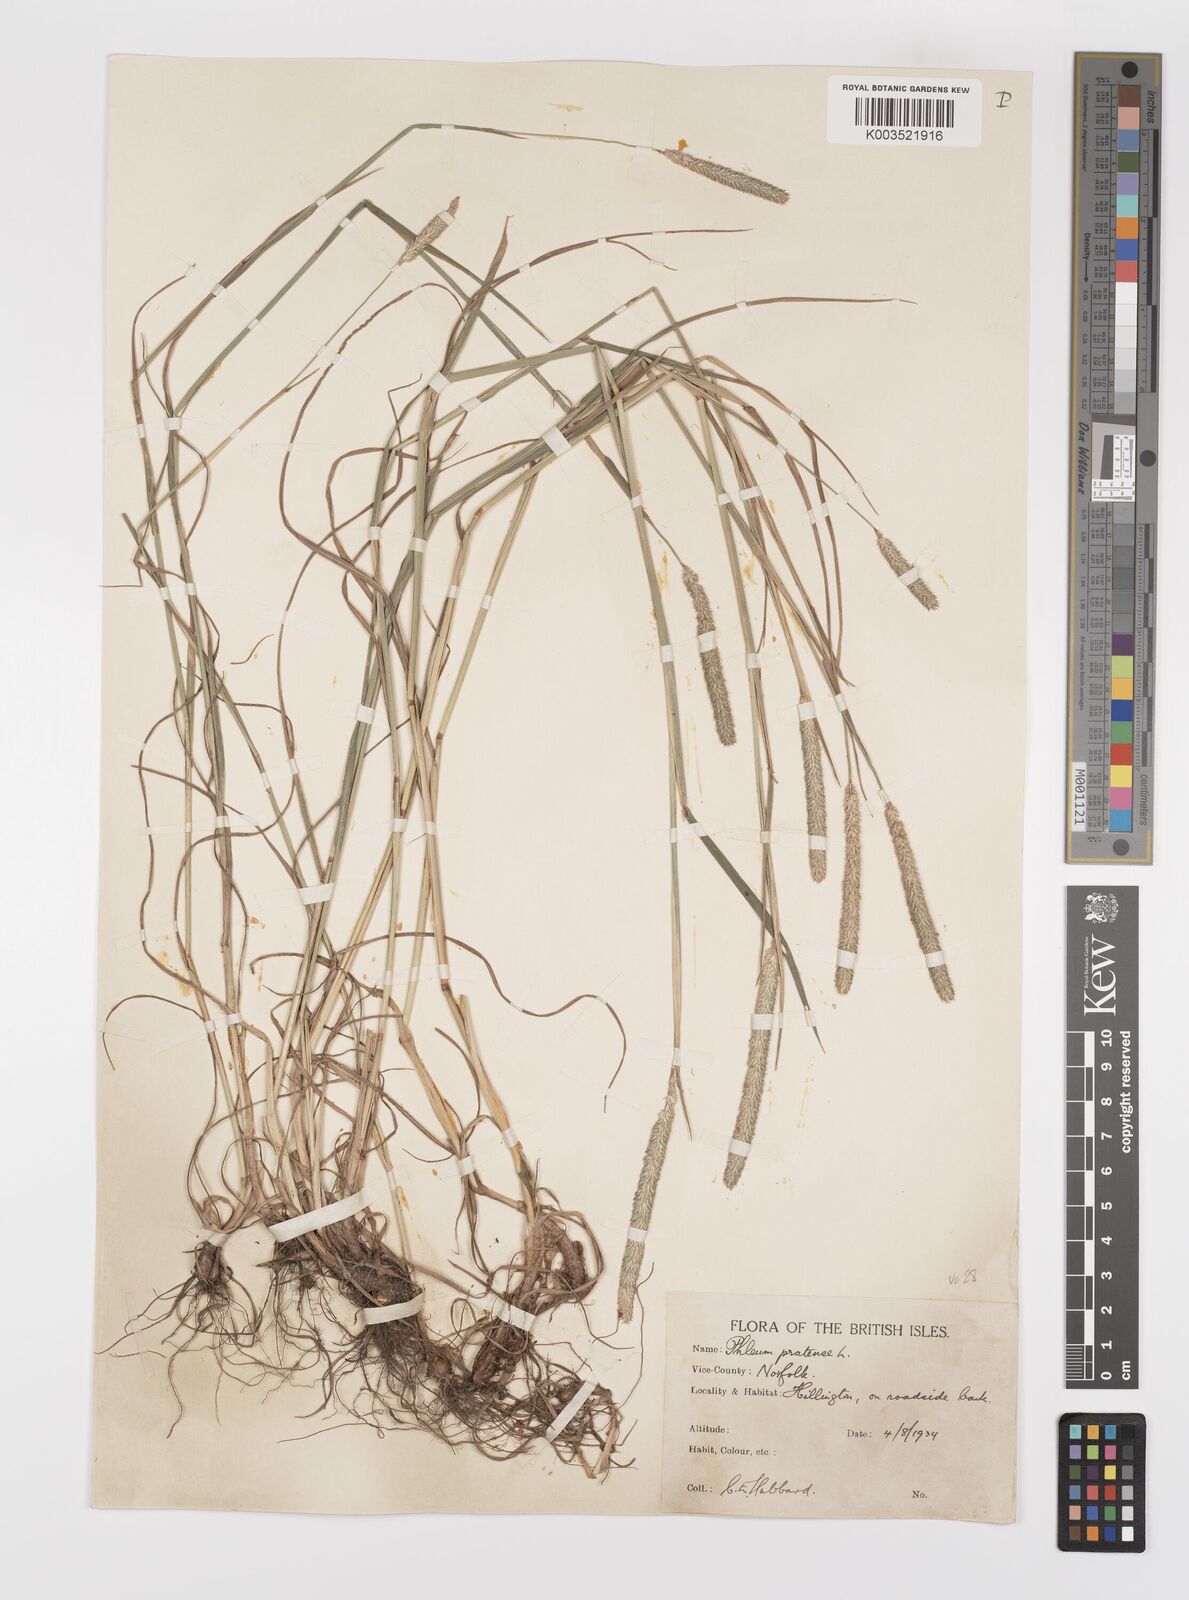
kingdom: Plantae
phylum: Tracheophyta
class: Liliopsida
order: Poales
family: Poaceae
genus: Phleum
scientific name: Phleum bertolonii
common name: Smaller cat's-tail
